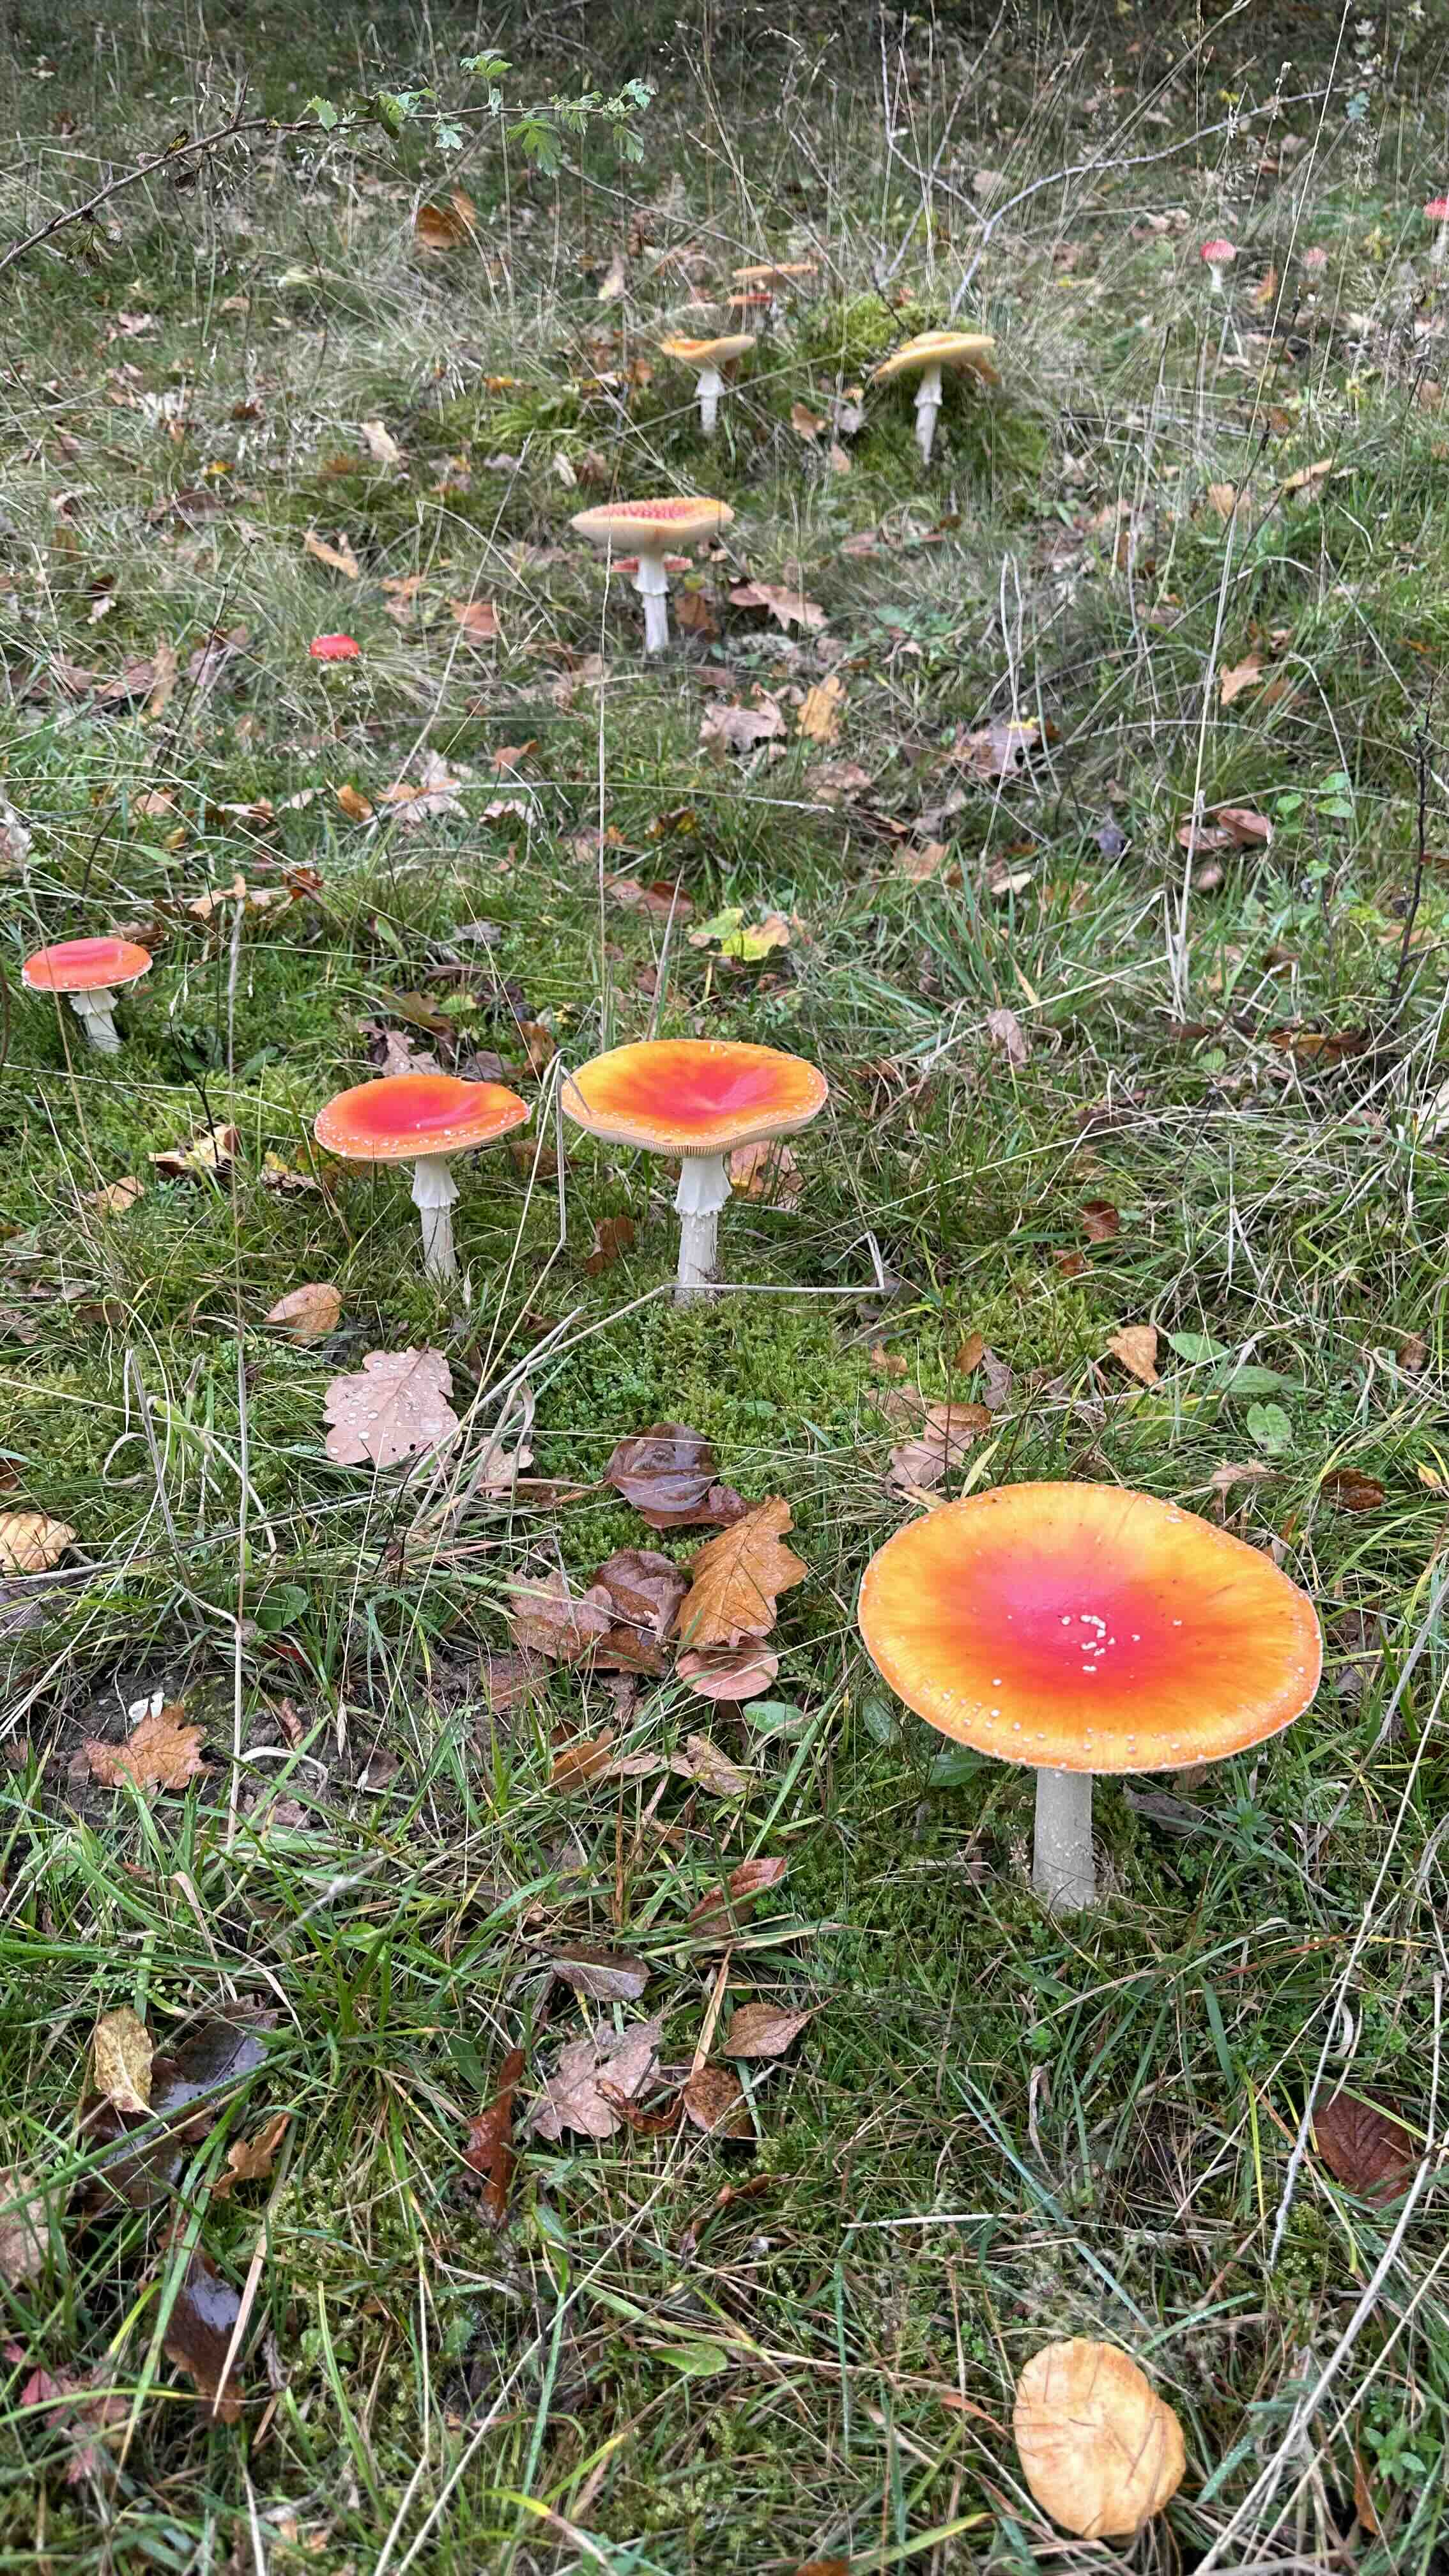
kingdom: Fungi
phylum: Basidiomycota
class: Agaricomycetes
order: Agaricales
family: Amanitaceae
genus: Amanita
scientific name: Amanita muscaria
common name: rød fluesvamp
